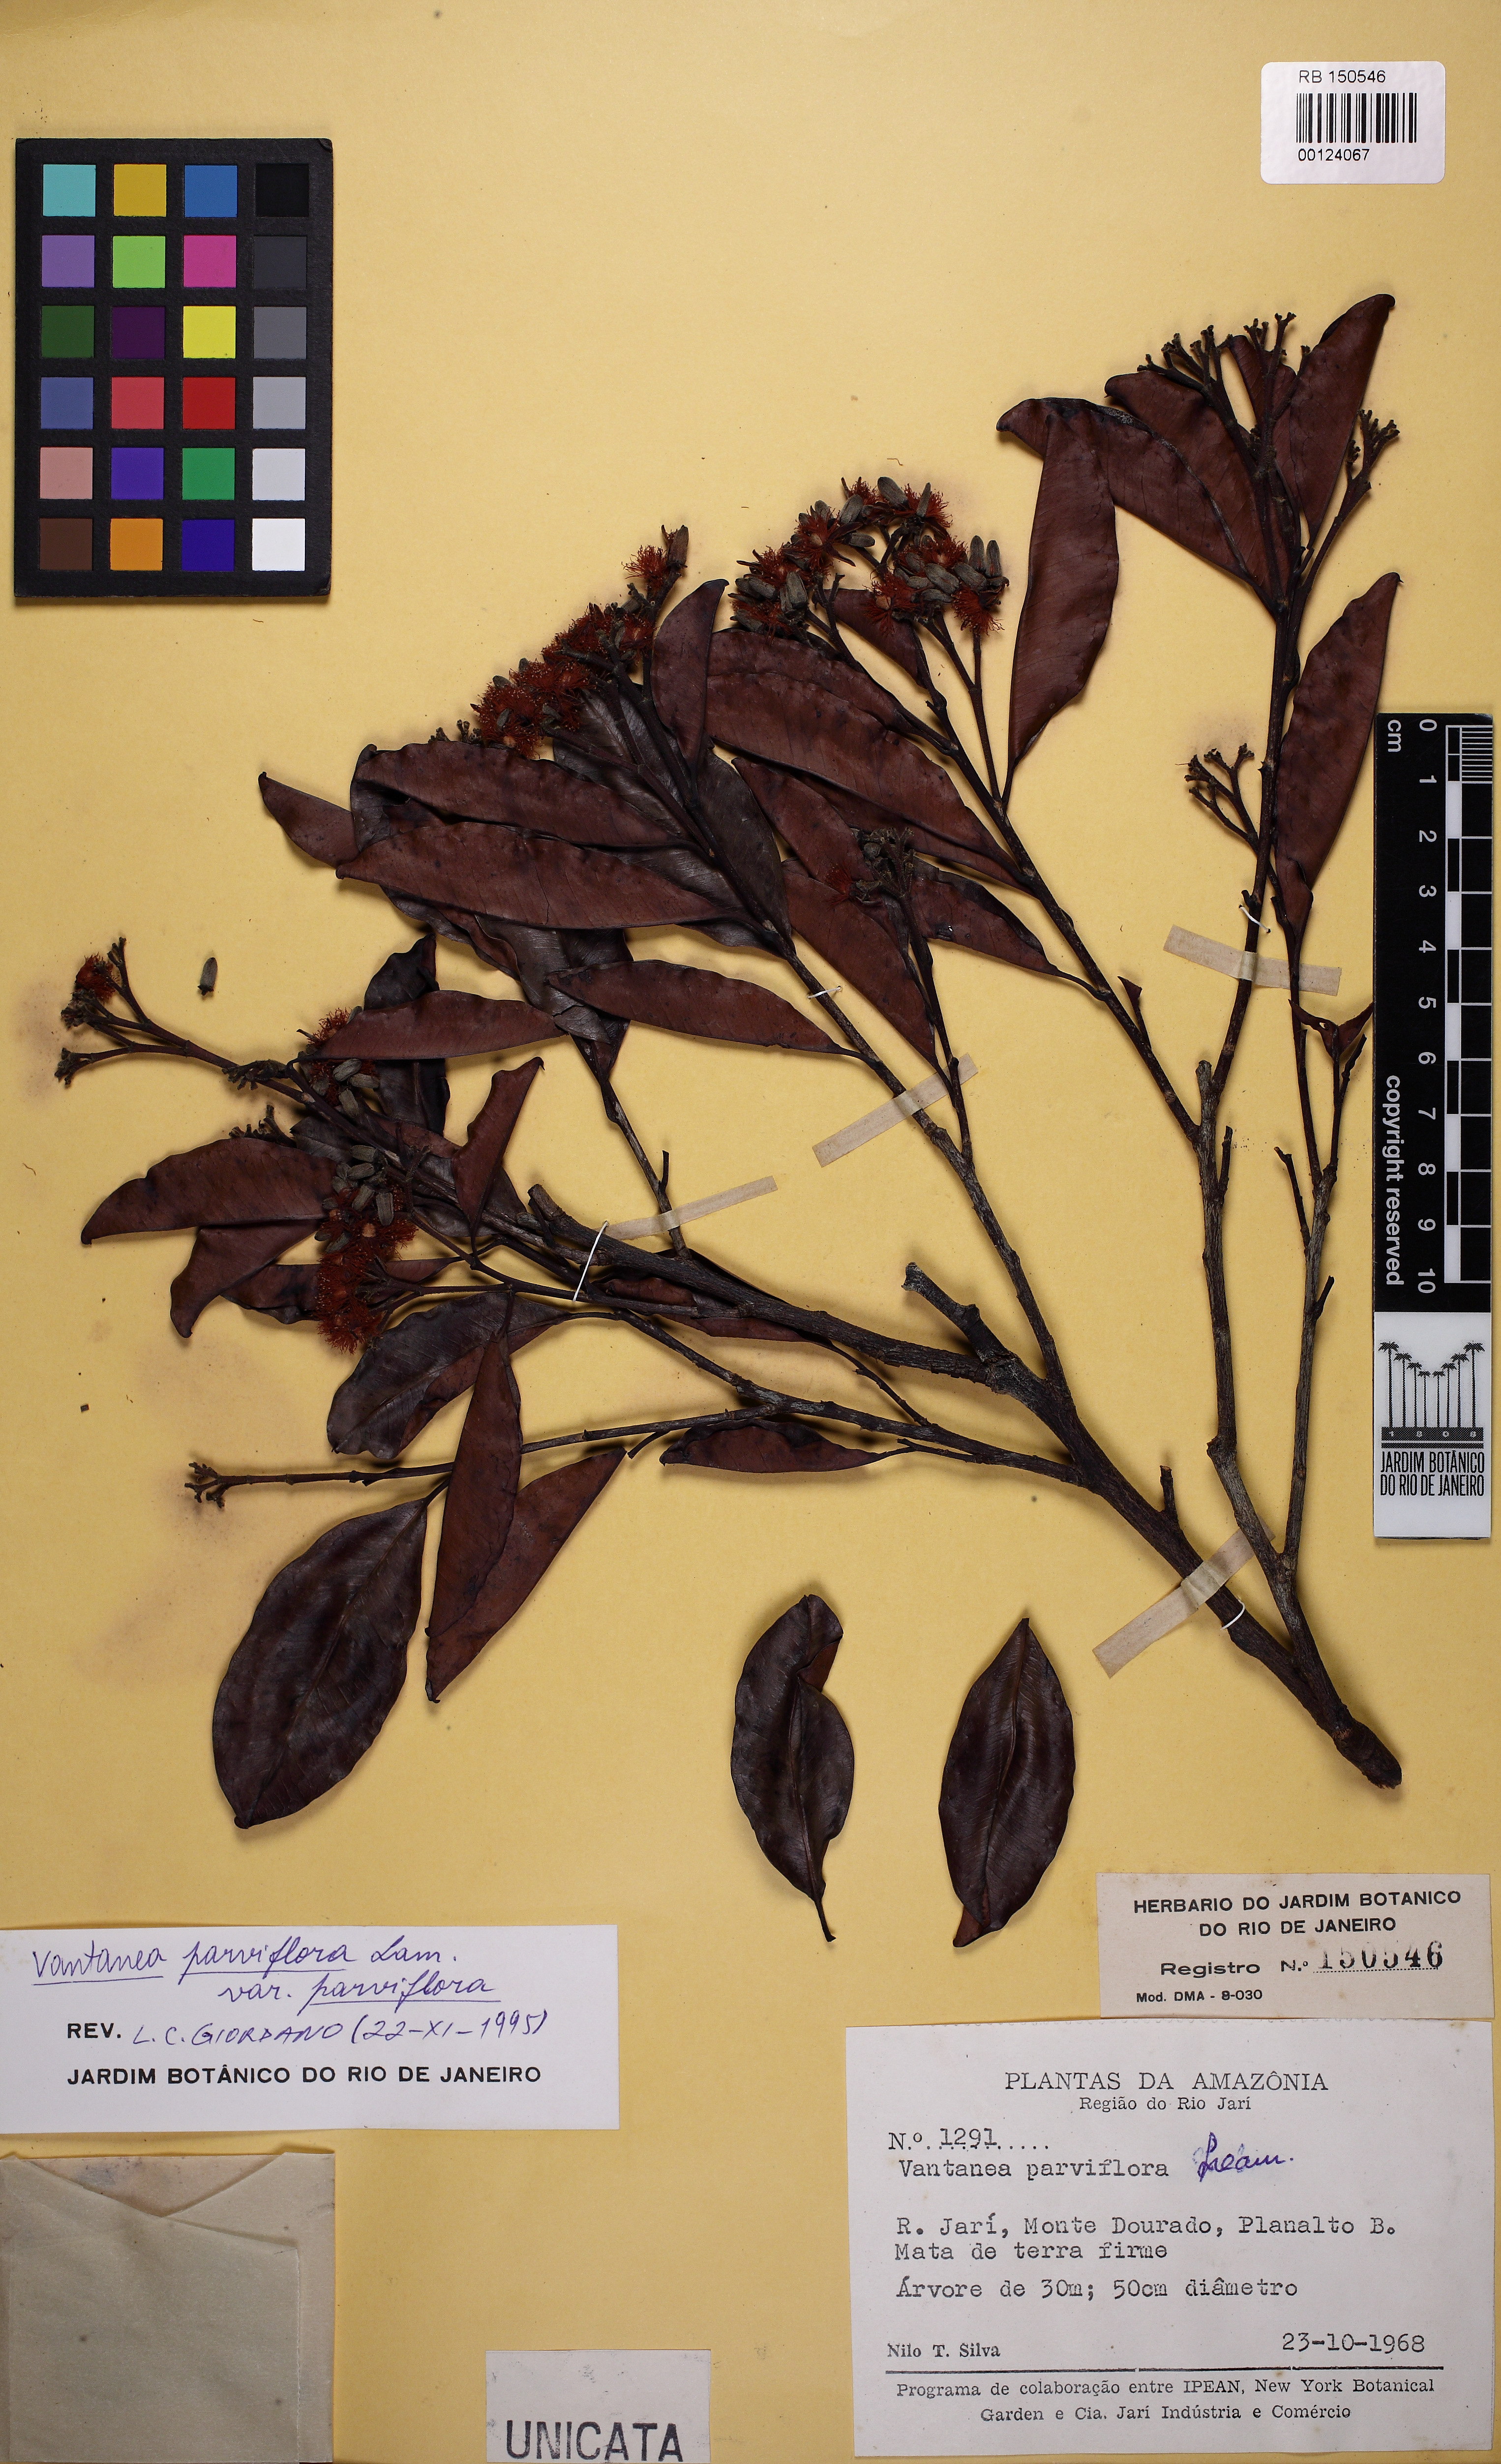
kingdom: Plantae
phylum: Tracheophyta
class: Magnoliopsida
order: Malpighiales
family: Humiriaceae
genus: Vantanea
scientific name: Vantanea parviflora
